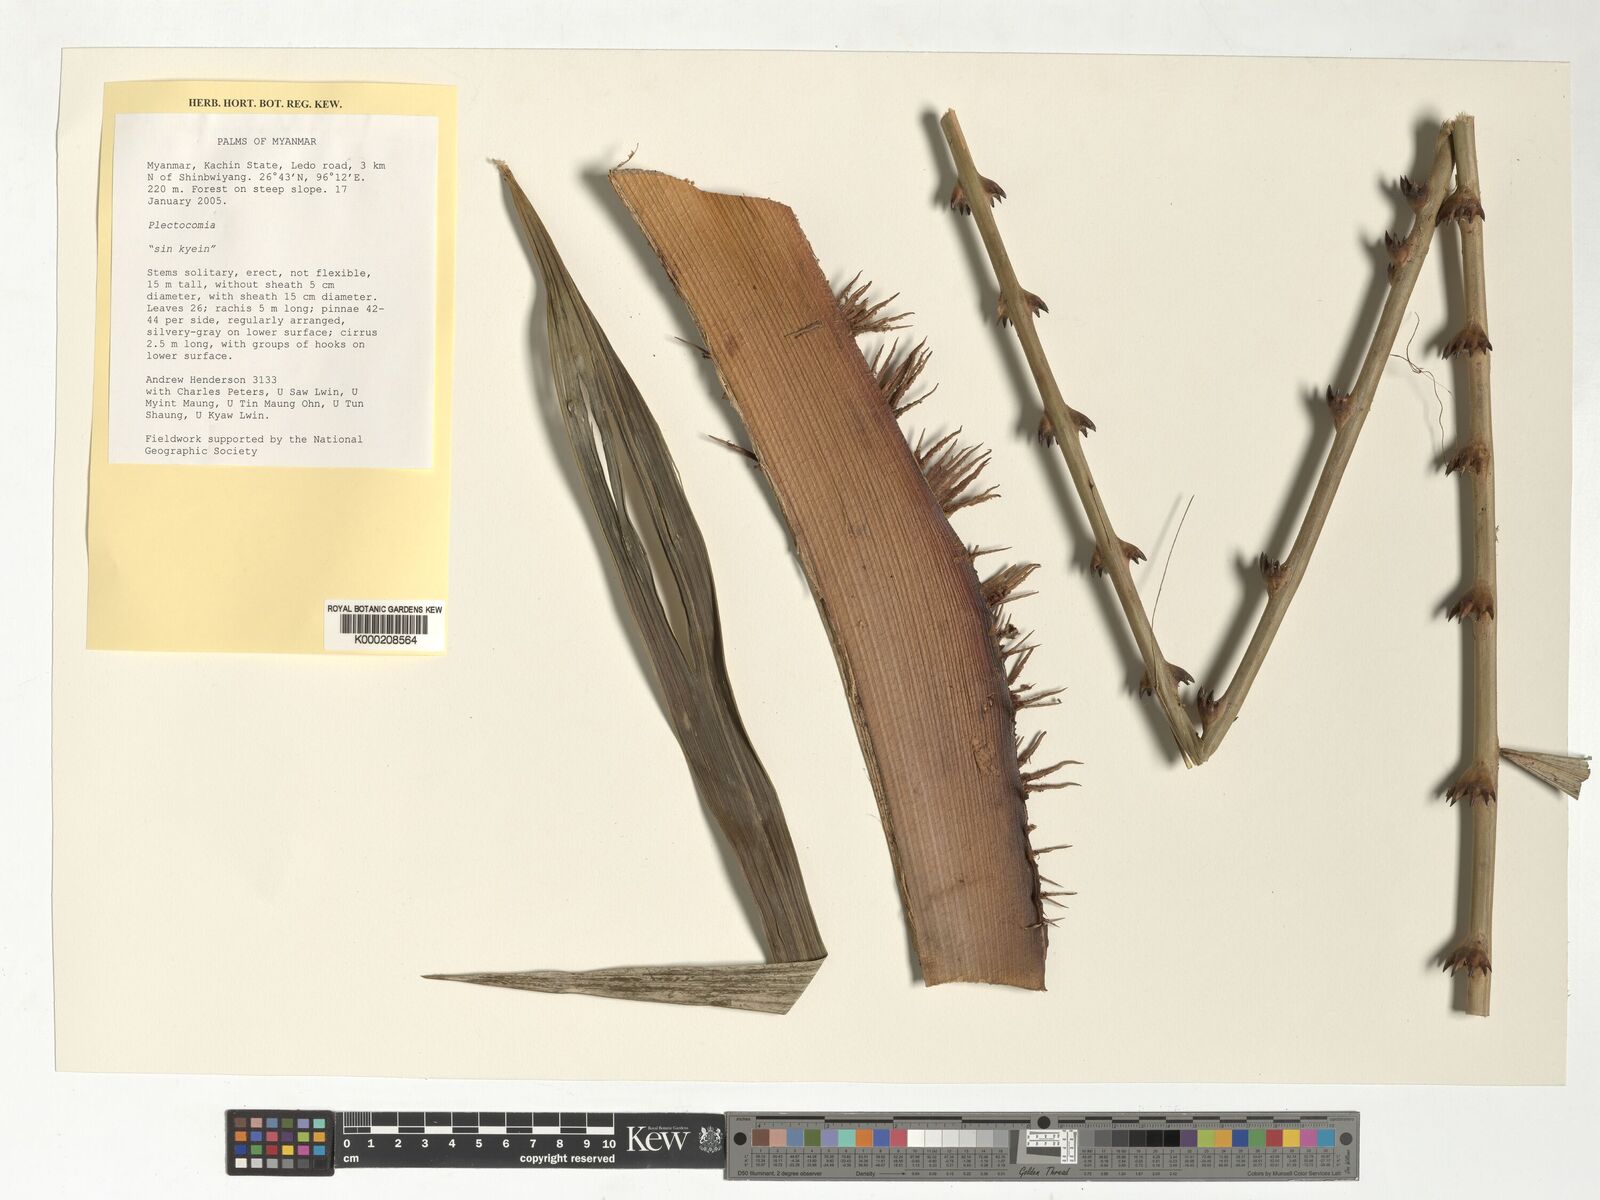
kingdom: Plantae
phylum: Tracheophyta
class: Liliopsida
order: Arecales
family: Arecaceae
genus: Plectocomia
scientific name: Plectocomia assamica
